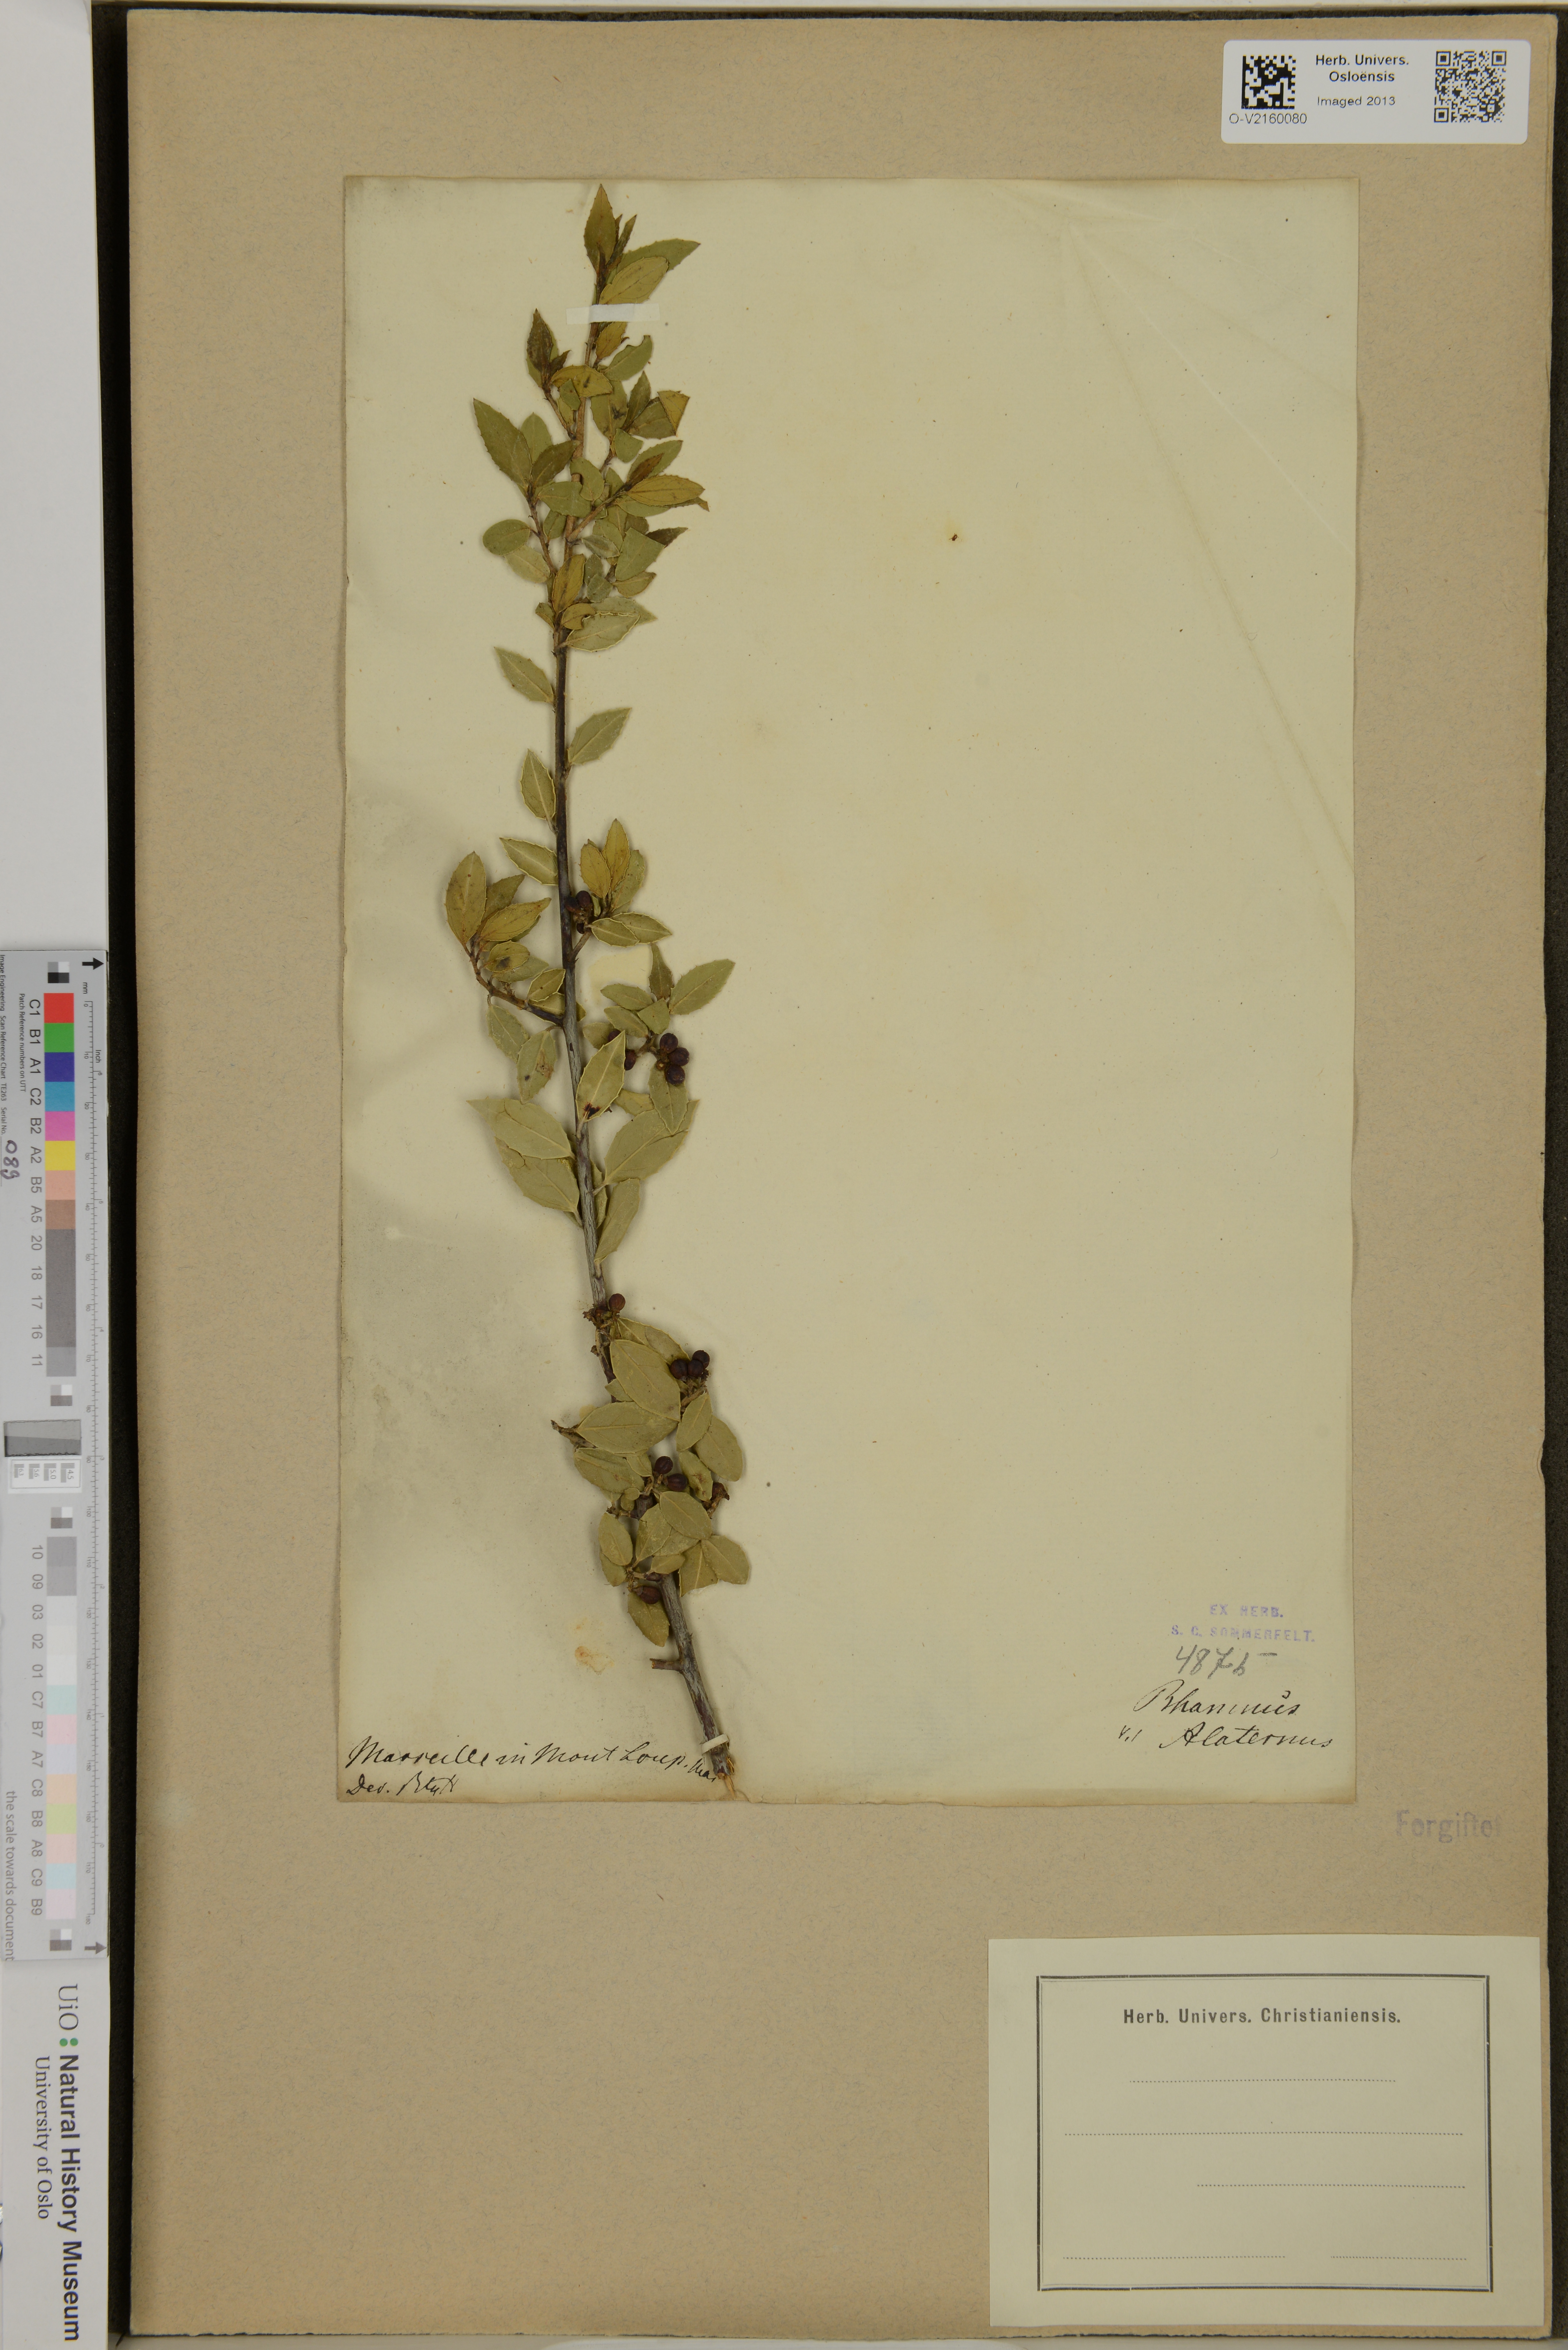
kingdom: Plantae
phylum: Tracheophyta
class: Magnoliopsida
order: Rosales
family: Rhamnaceae
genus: Rhamnus
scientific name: Rhamnus alaternus
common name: Mediterranean buckthorn
